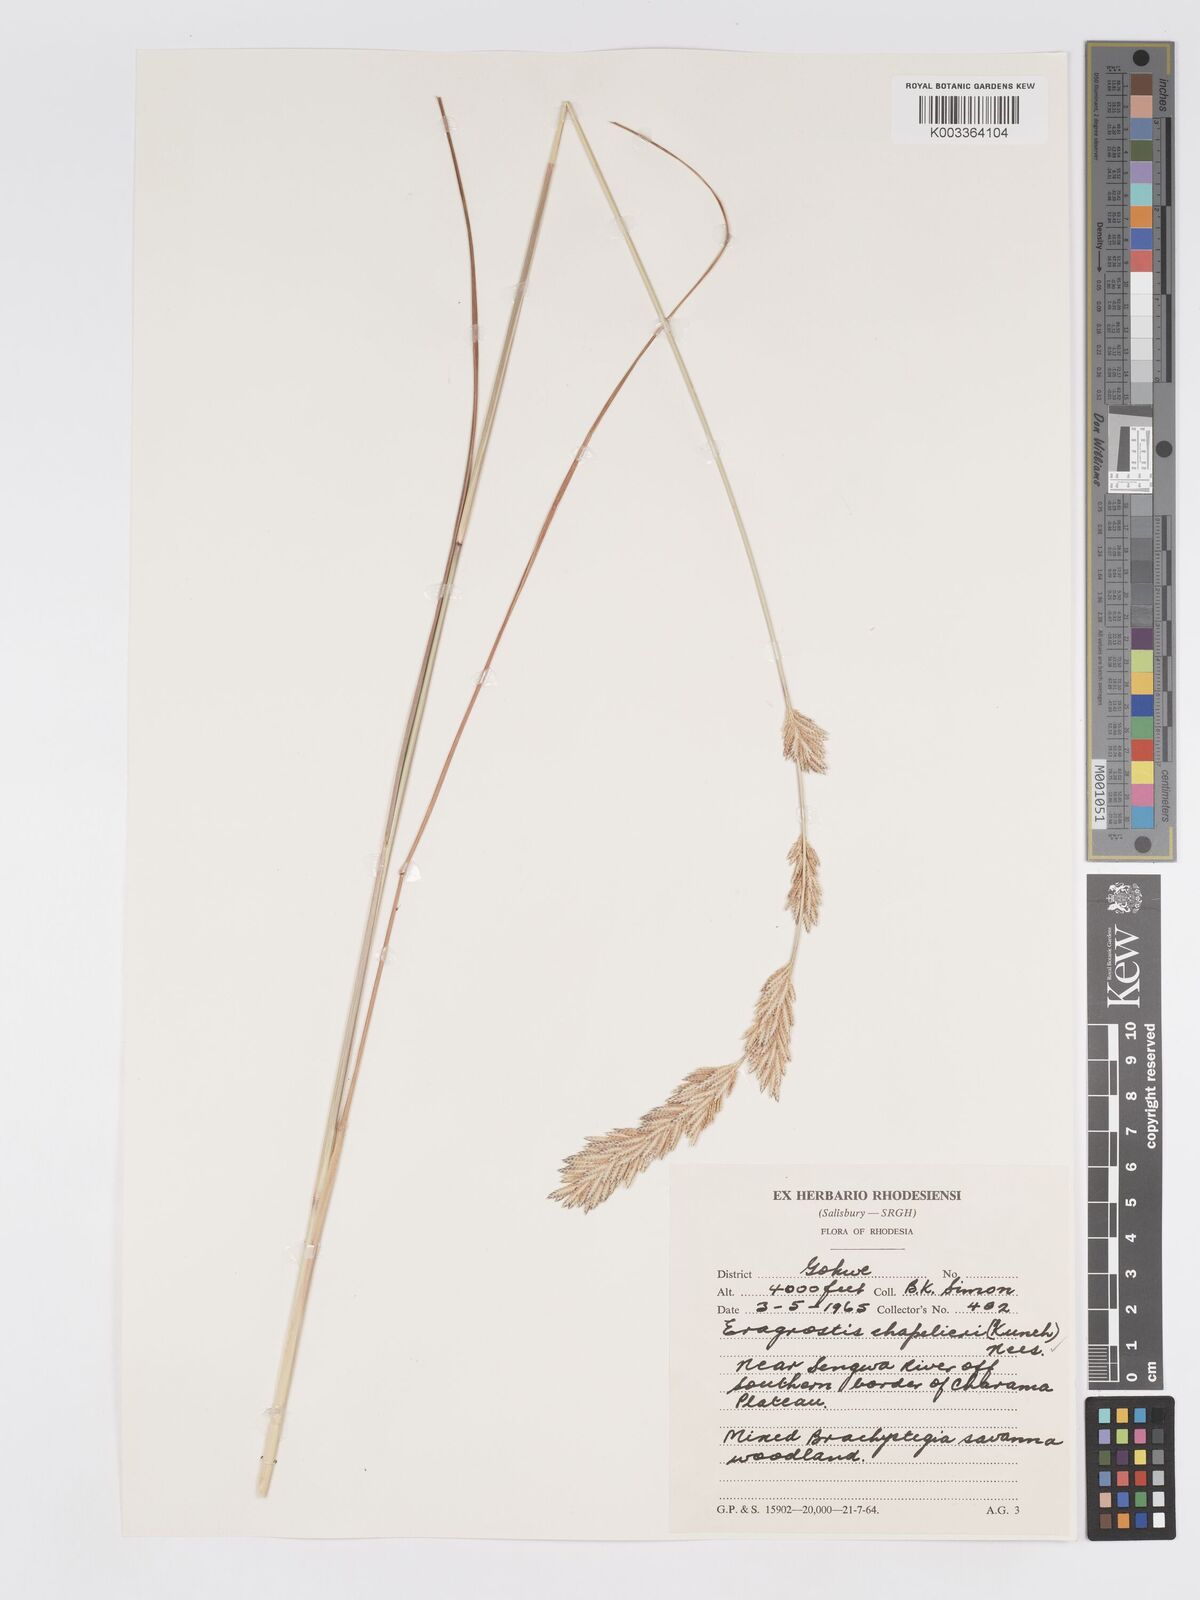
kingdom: Plantae
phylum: Tracheophyta
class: Liliopsida
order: Poales
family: Poaceae
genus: Eragrostis
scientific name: Eragrostis chapelieri
